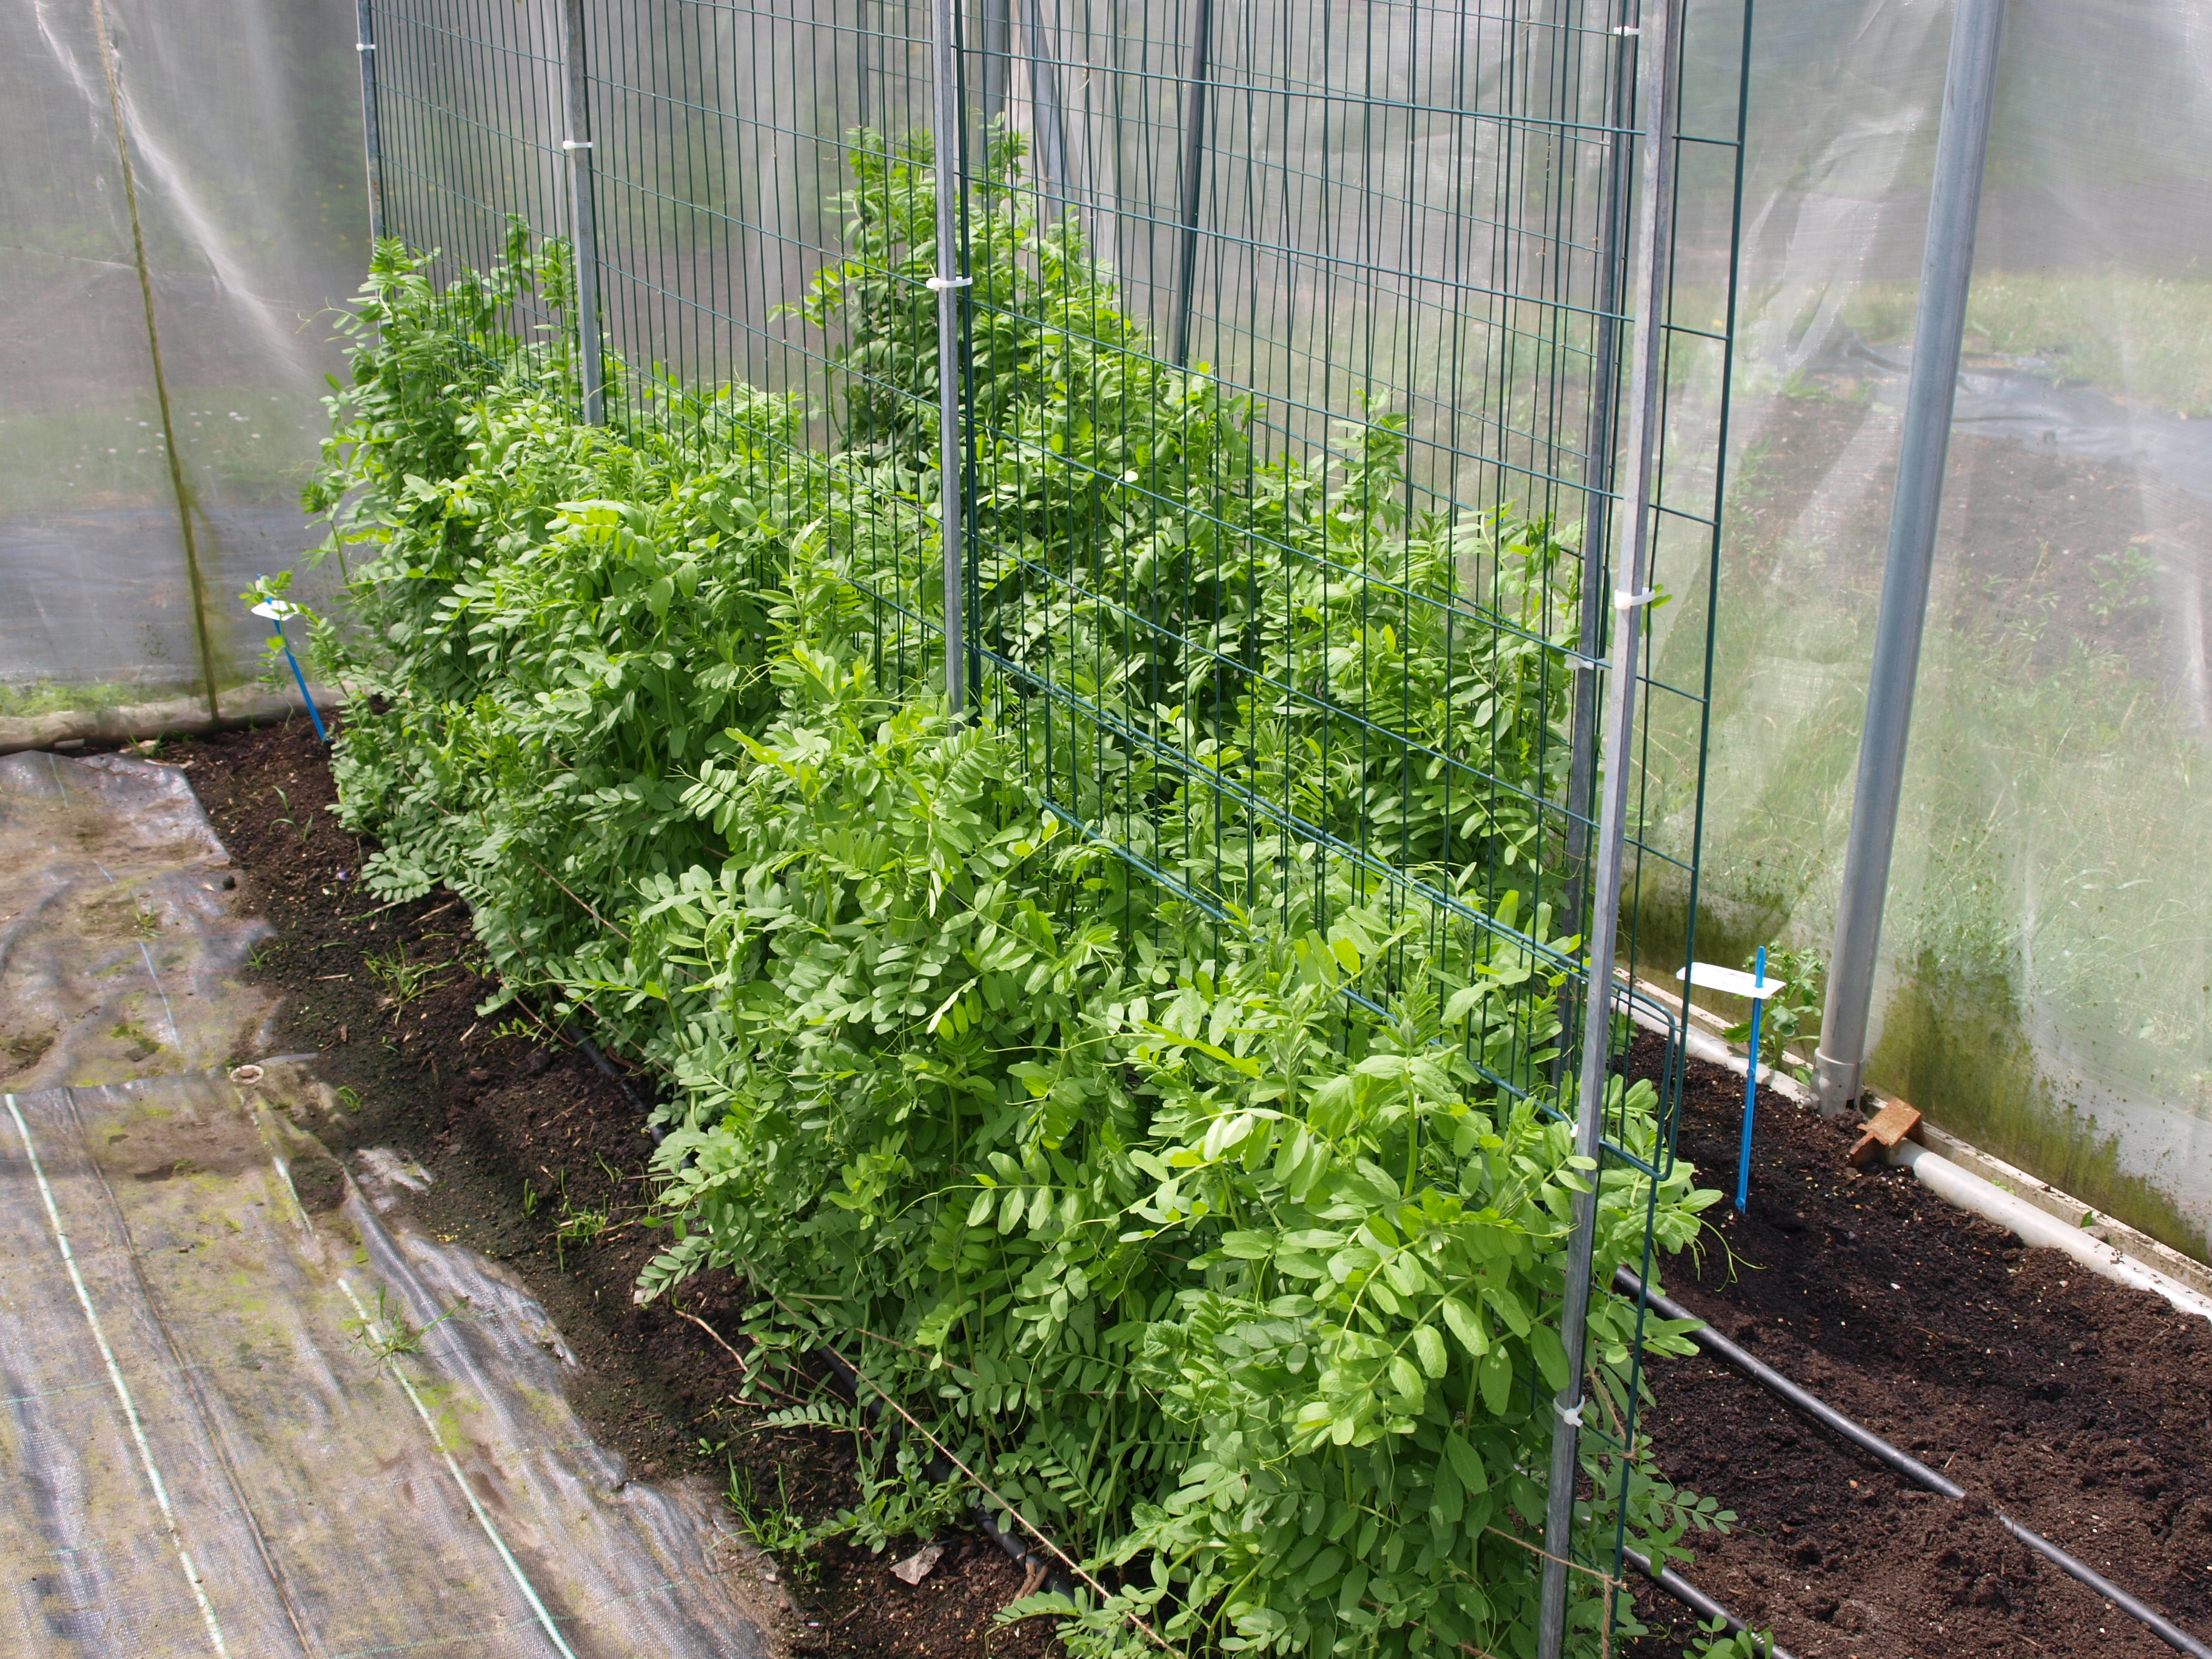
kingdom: Plantae
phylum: Tracheophyta
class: Magnoliopsida
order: Fabales
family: Fabaceae
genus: Vicia
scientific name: Vicia sativa
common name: Garden vetch
